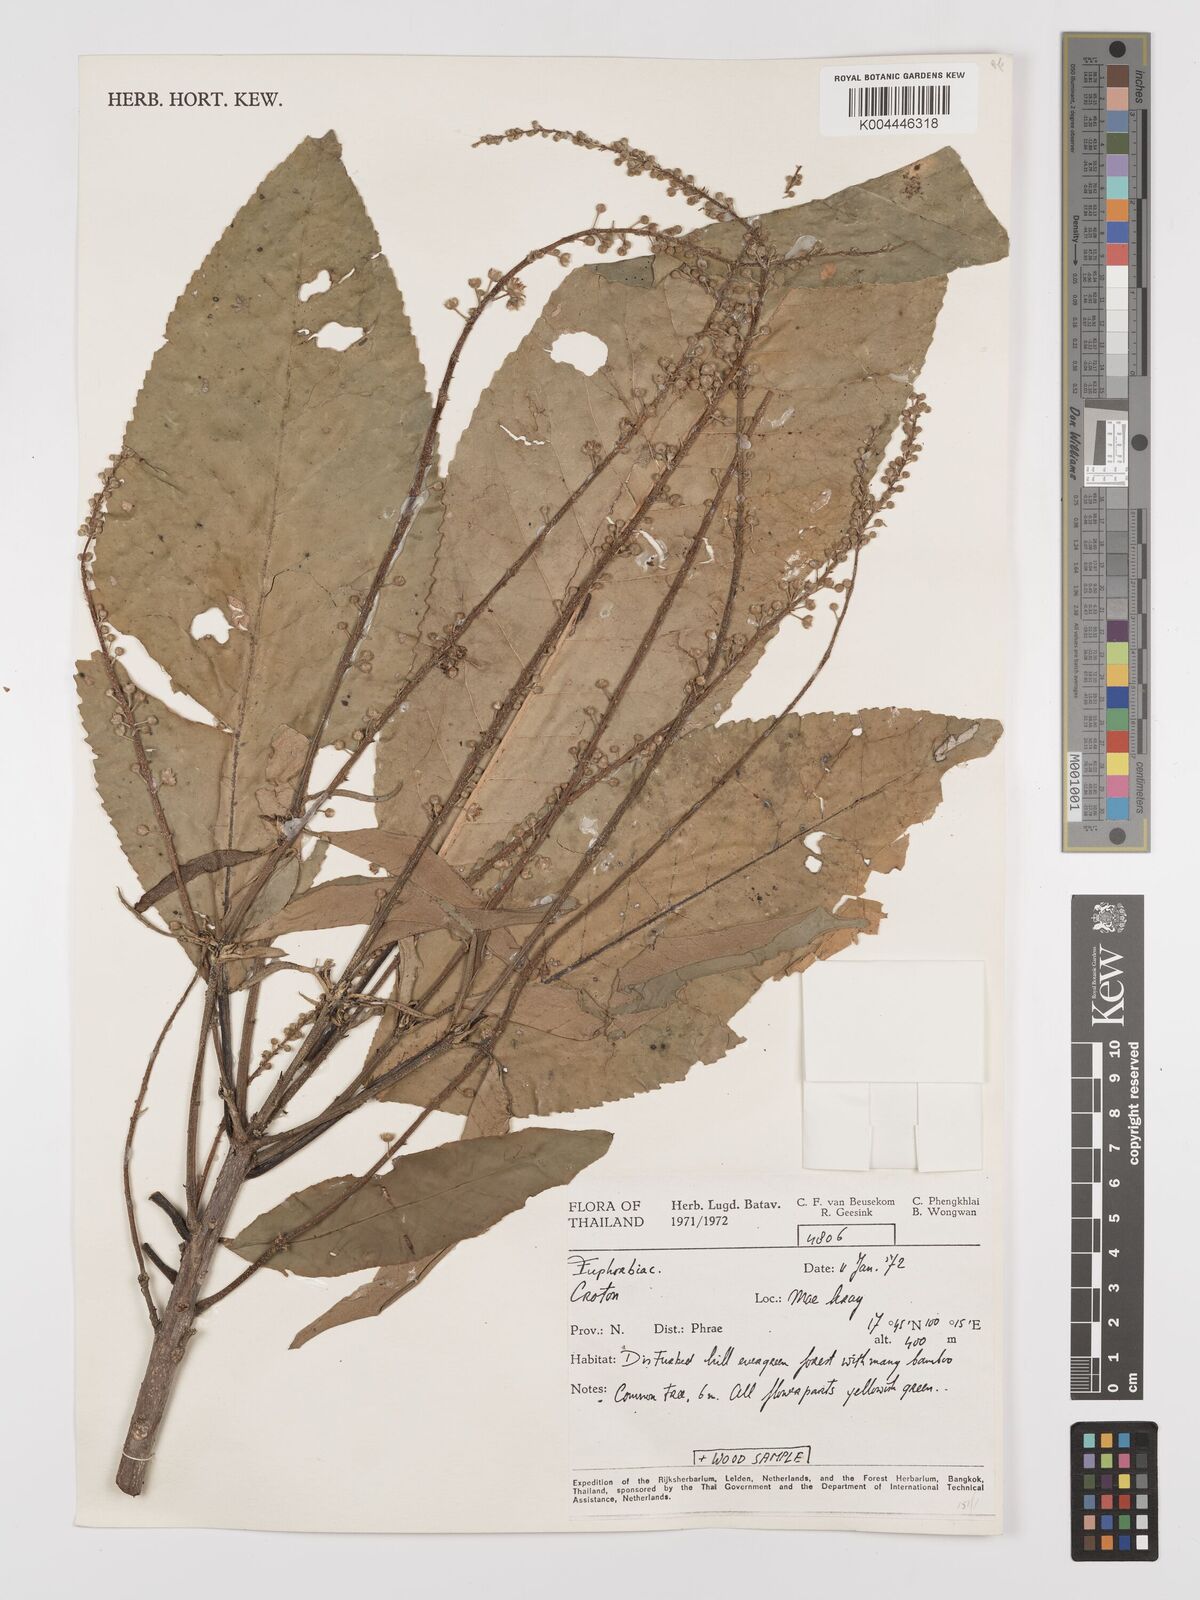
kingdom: Plantae
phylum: Tracheophyta
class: Magnoliopsida
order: Malpighiales
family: Euphorbiaceae
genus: Croton
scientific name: Croton
